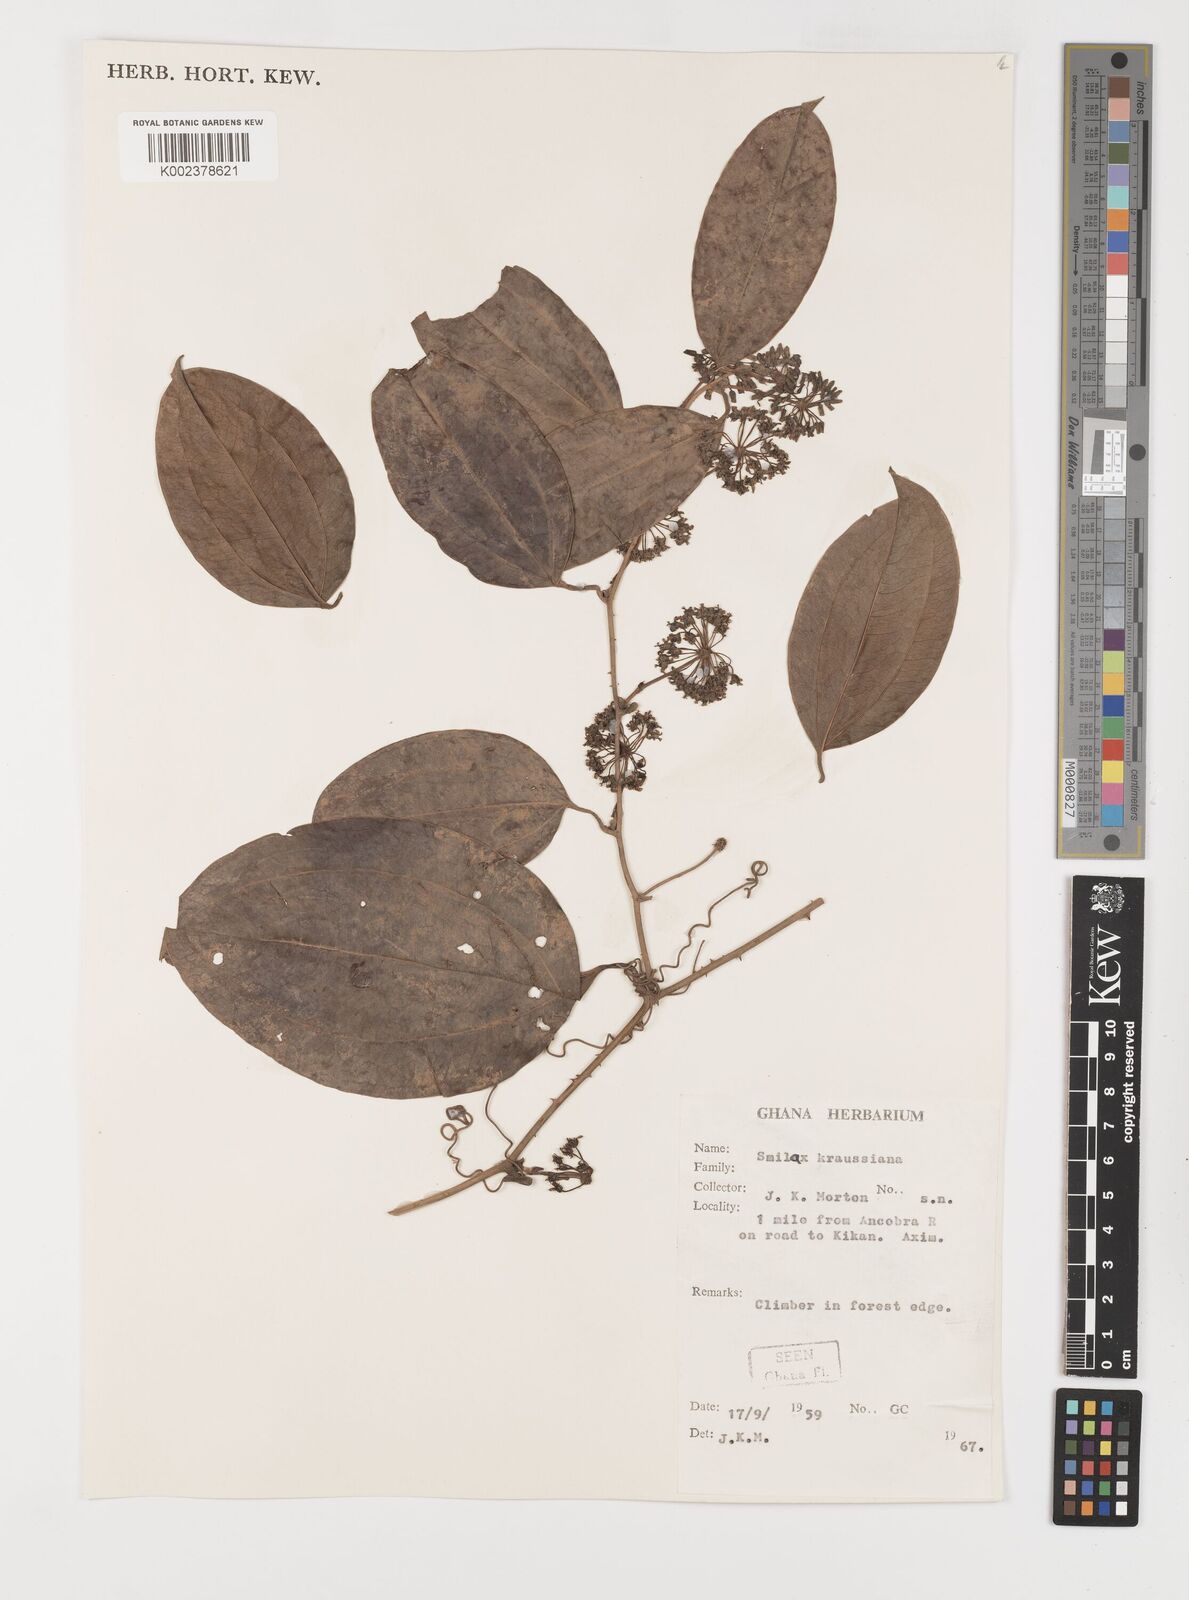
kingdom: Plantae
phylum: Tracheophyta
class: Liliopsida
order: Liliales
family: Smilacaceae
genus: Smilax
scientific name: Smilax anceps
